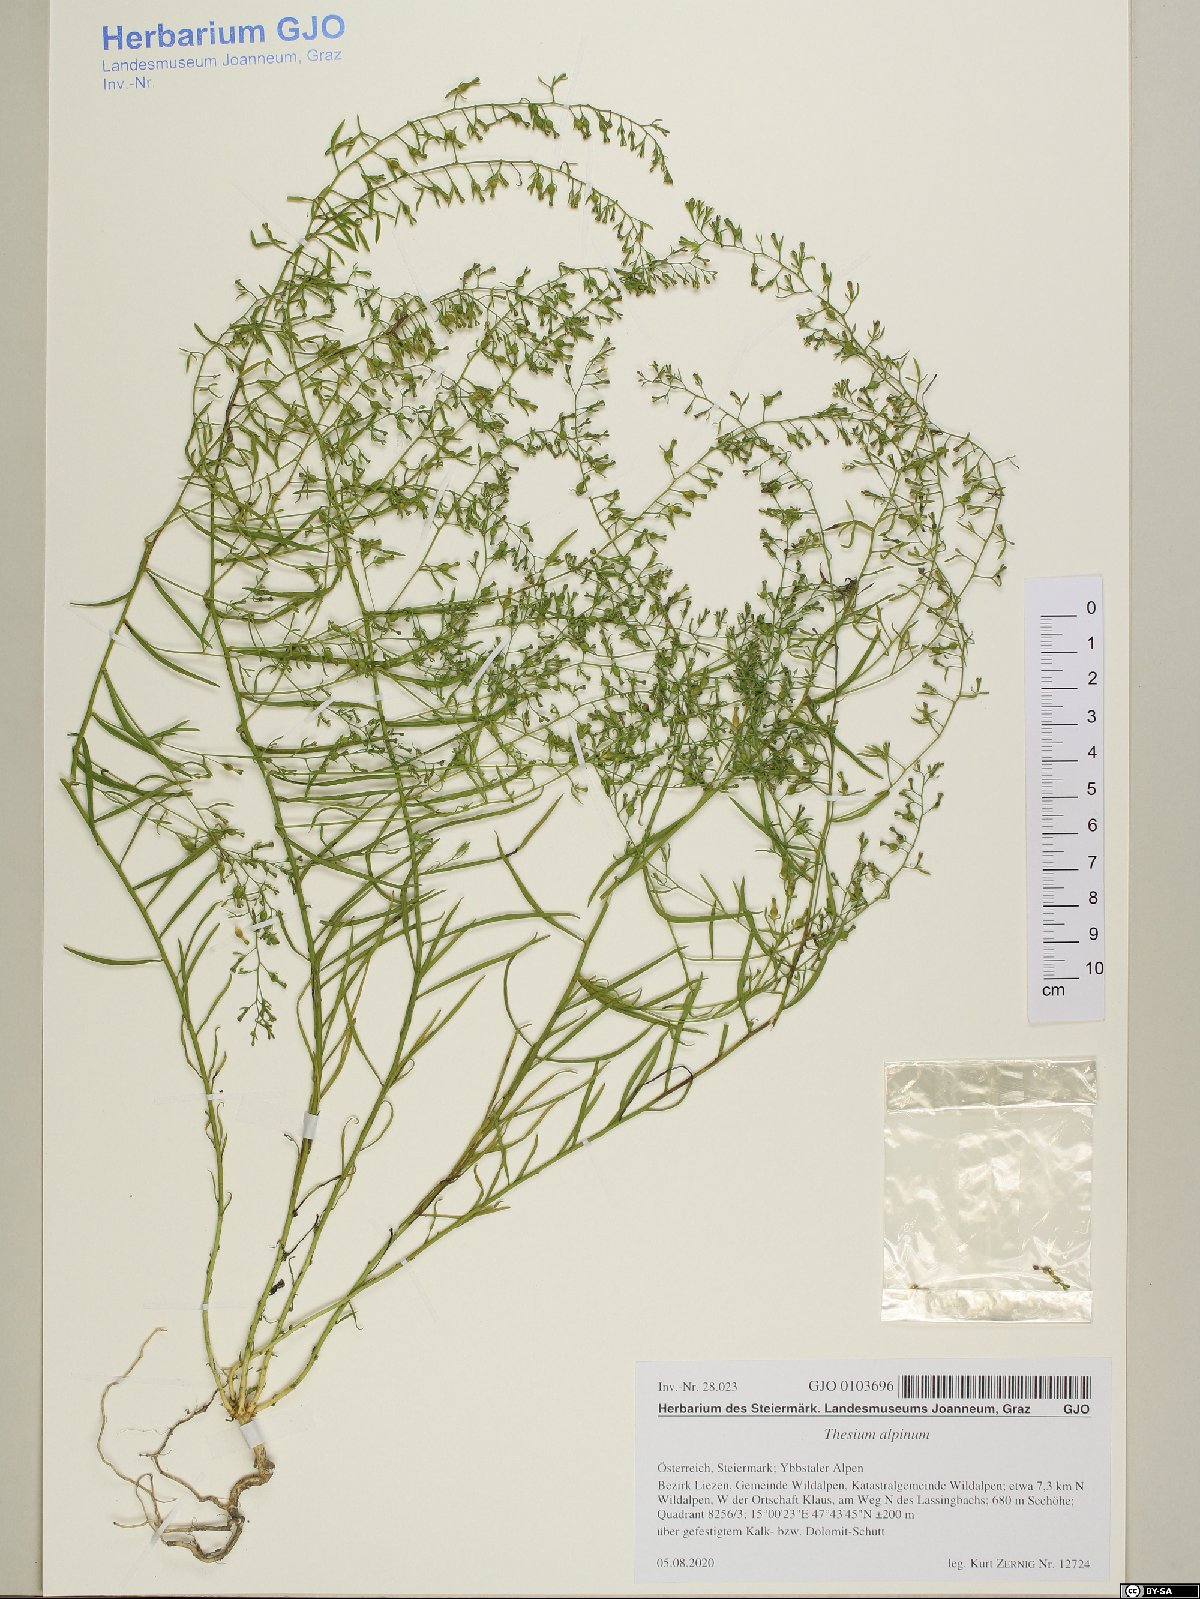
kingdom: Plantae
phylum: Tracheophyta
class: Magnoliopsida
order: Santalales
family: Thesiaceae
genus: Thesium
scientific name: Thesium alpinum
